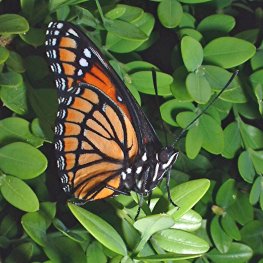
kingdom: Animalia
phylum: Arthropoda
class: Insecta
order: Lepidoptera
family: Nymphalidae
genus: Limenitis
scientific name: Limenitis archippus
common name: Viceroy
